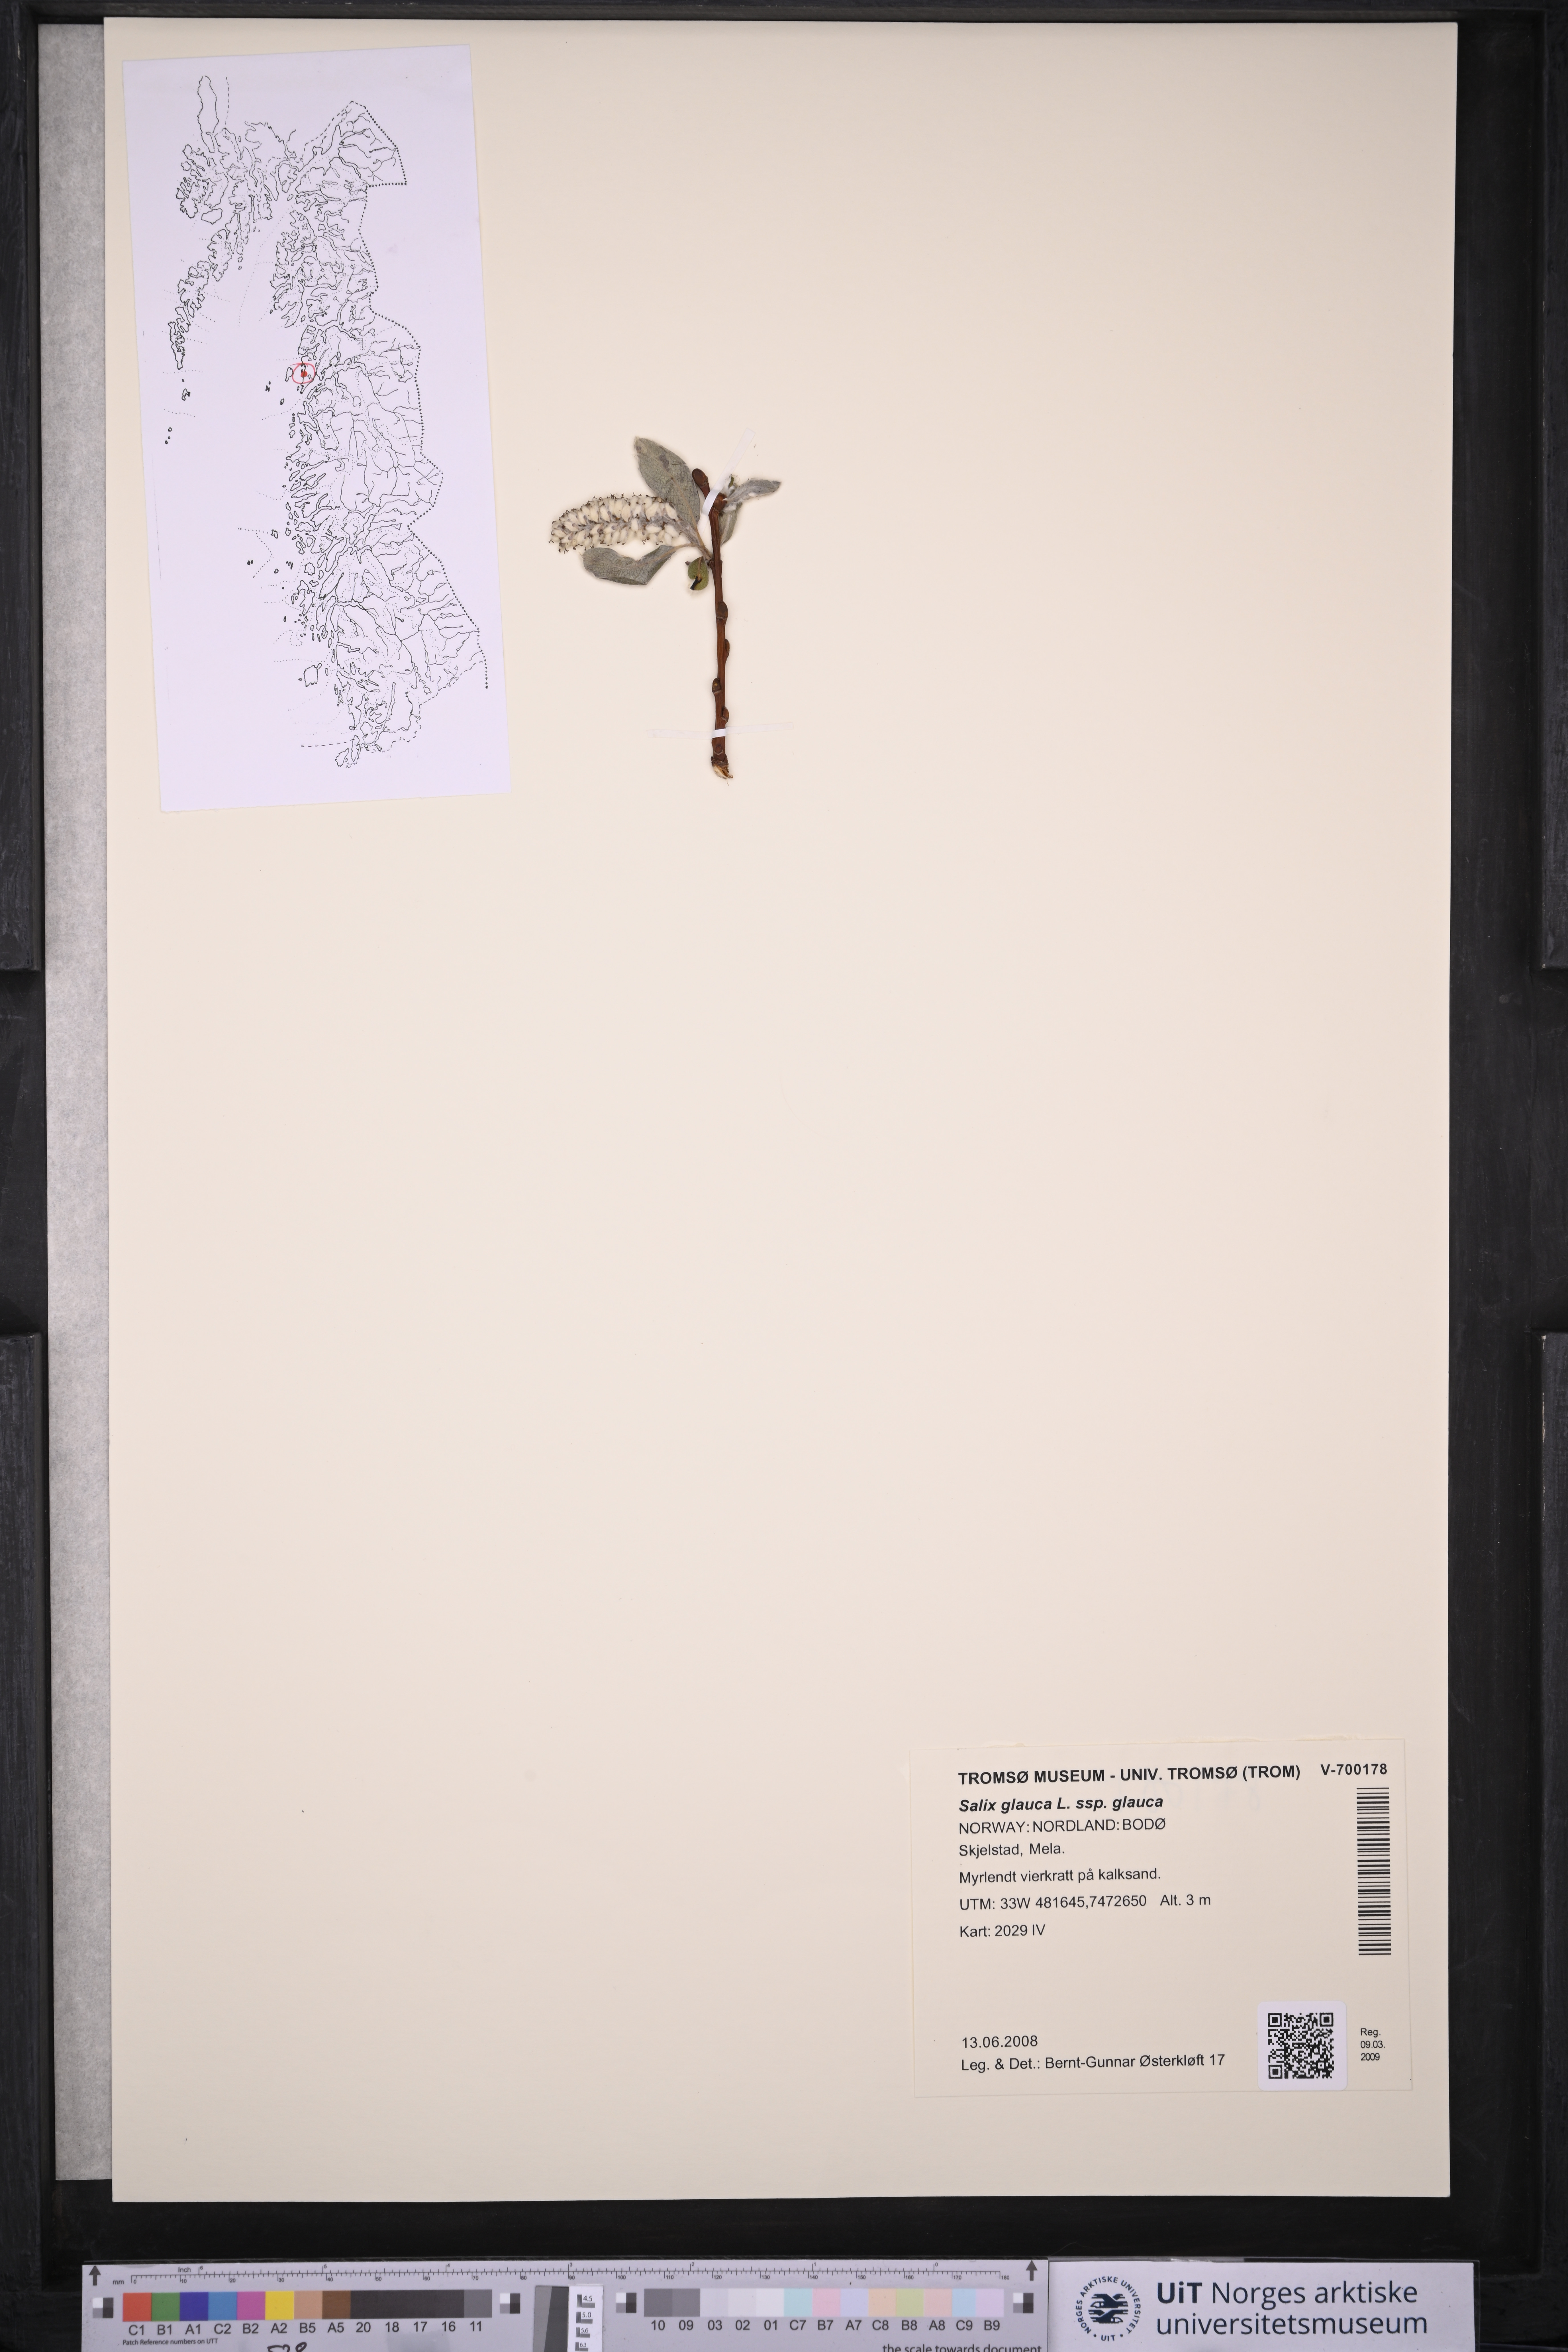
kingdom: Plantae
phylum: Tracheophyta
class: Magnoliopsida
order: Malpighiales
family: Salicaceae
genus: Salix
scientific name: Salix glauca
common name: Glaucous willow
